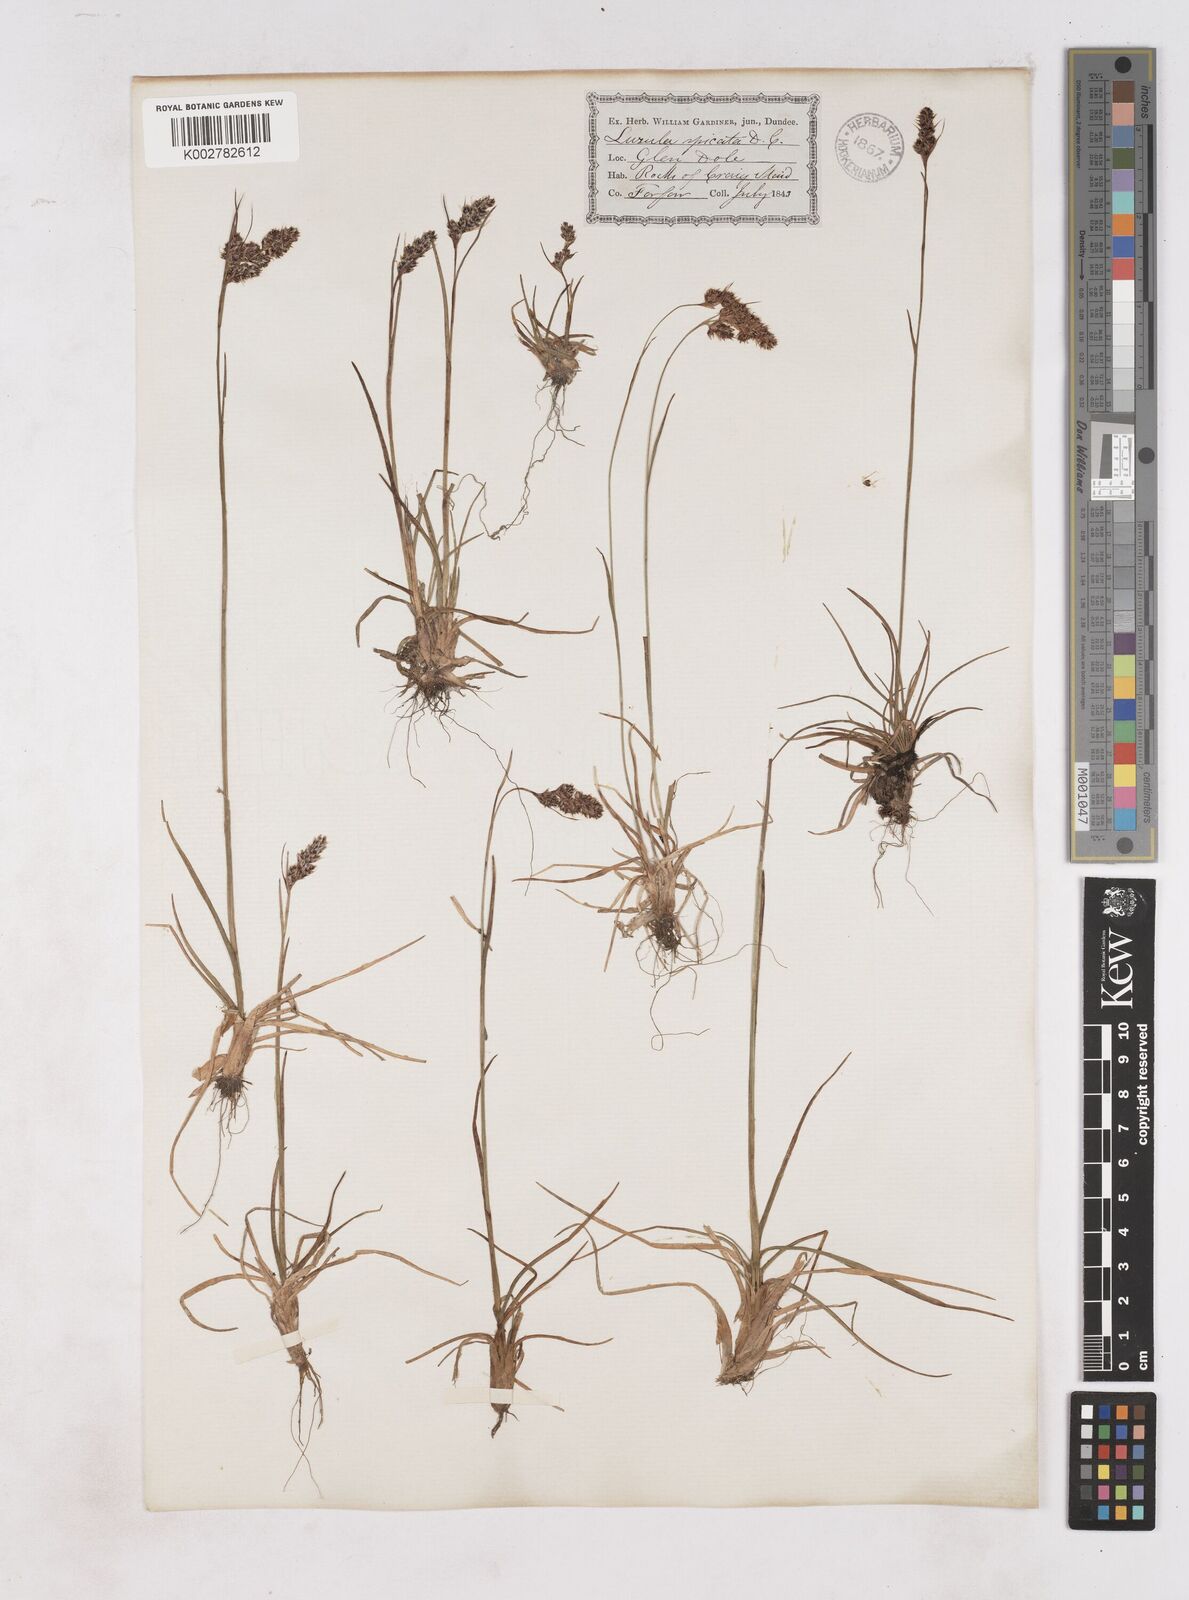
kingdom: Plantae
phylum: Tracheophyta
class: Liliopsida
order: Poales
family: Juncaceae
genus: Luzula
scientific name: Luzula spicata
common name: Spiked wood-rush
